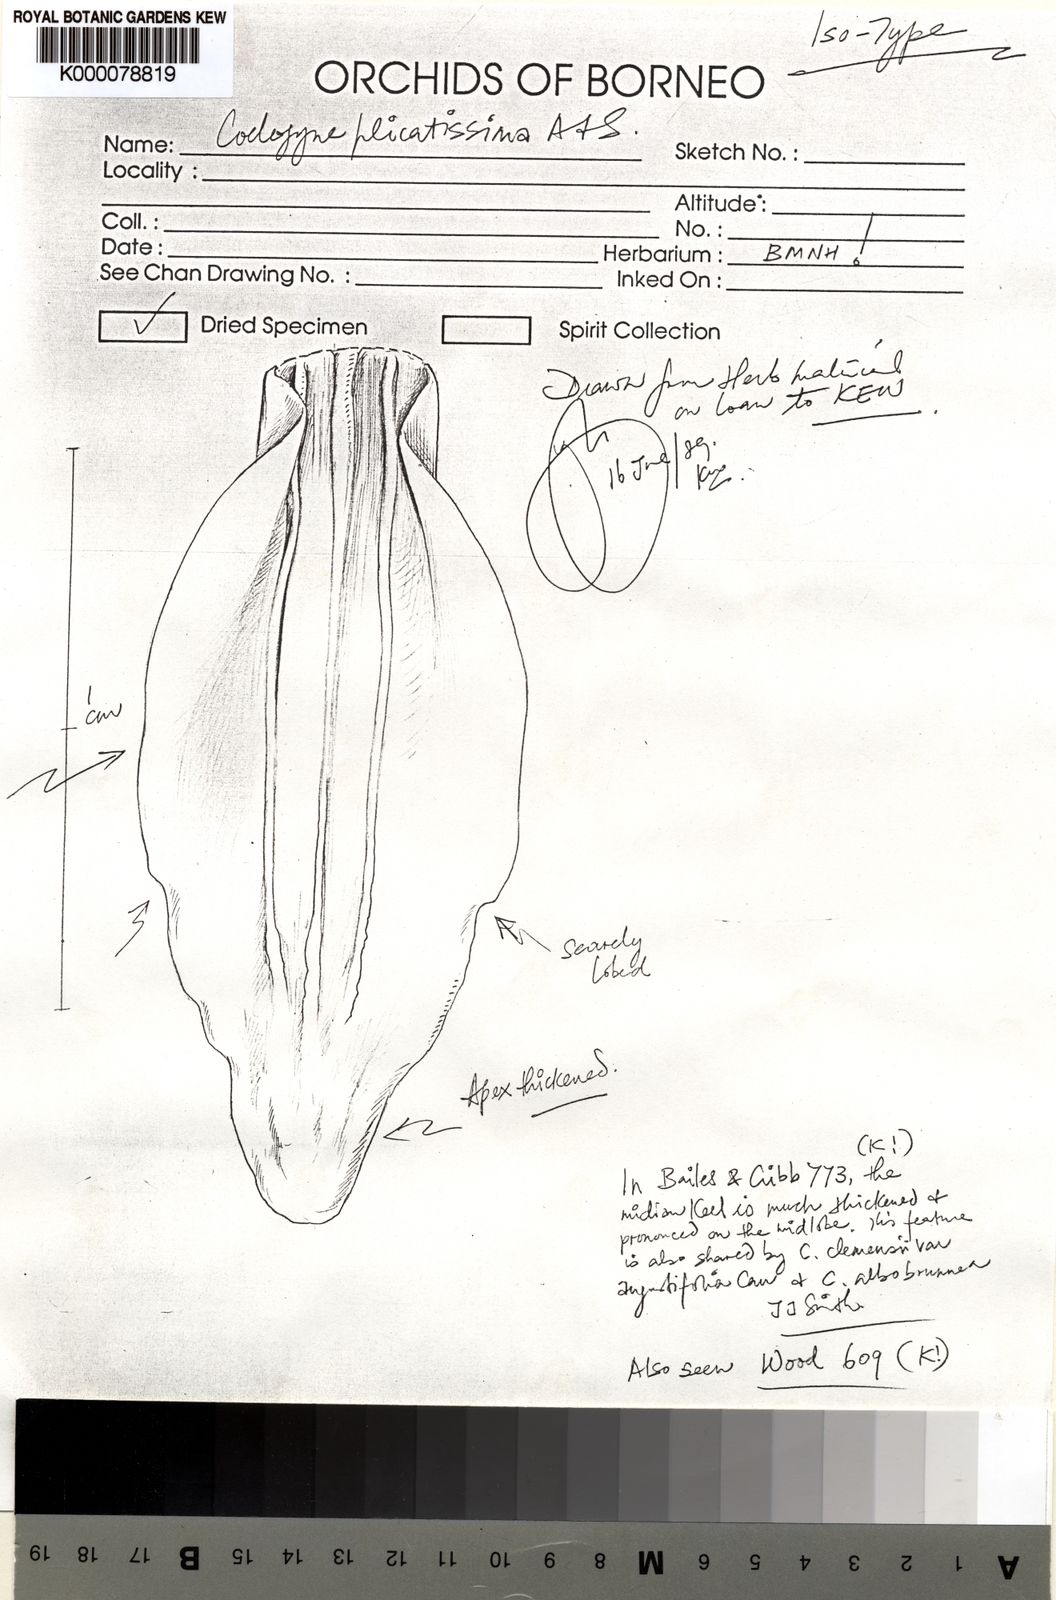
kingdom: Plantae
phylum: Tracheophyta
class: Liliopsida
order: Asparagales
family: Orchidaceae
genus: Coelogyne
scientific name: Coelogyne plicatissima
